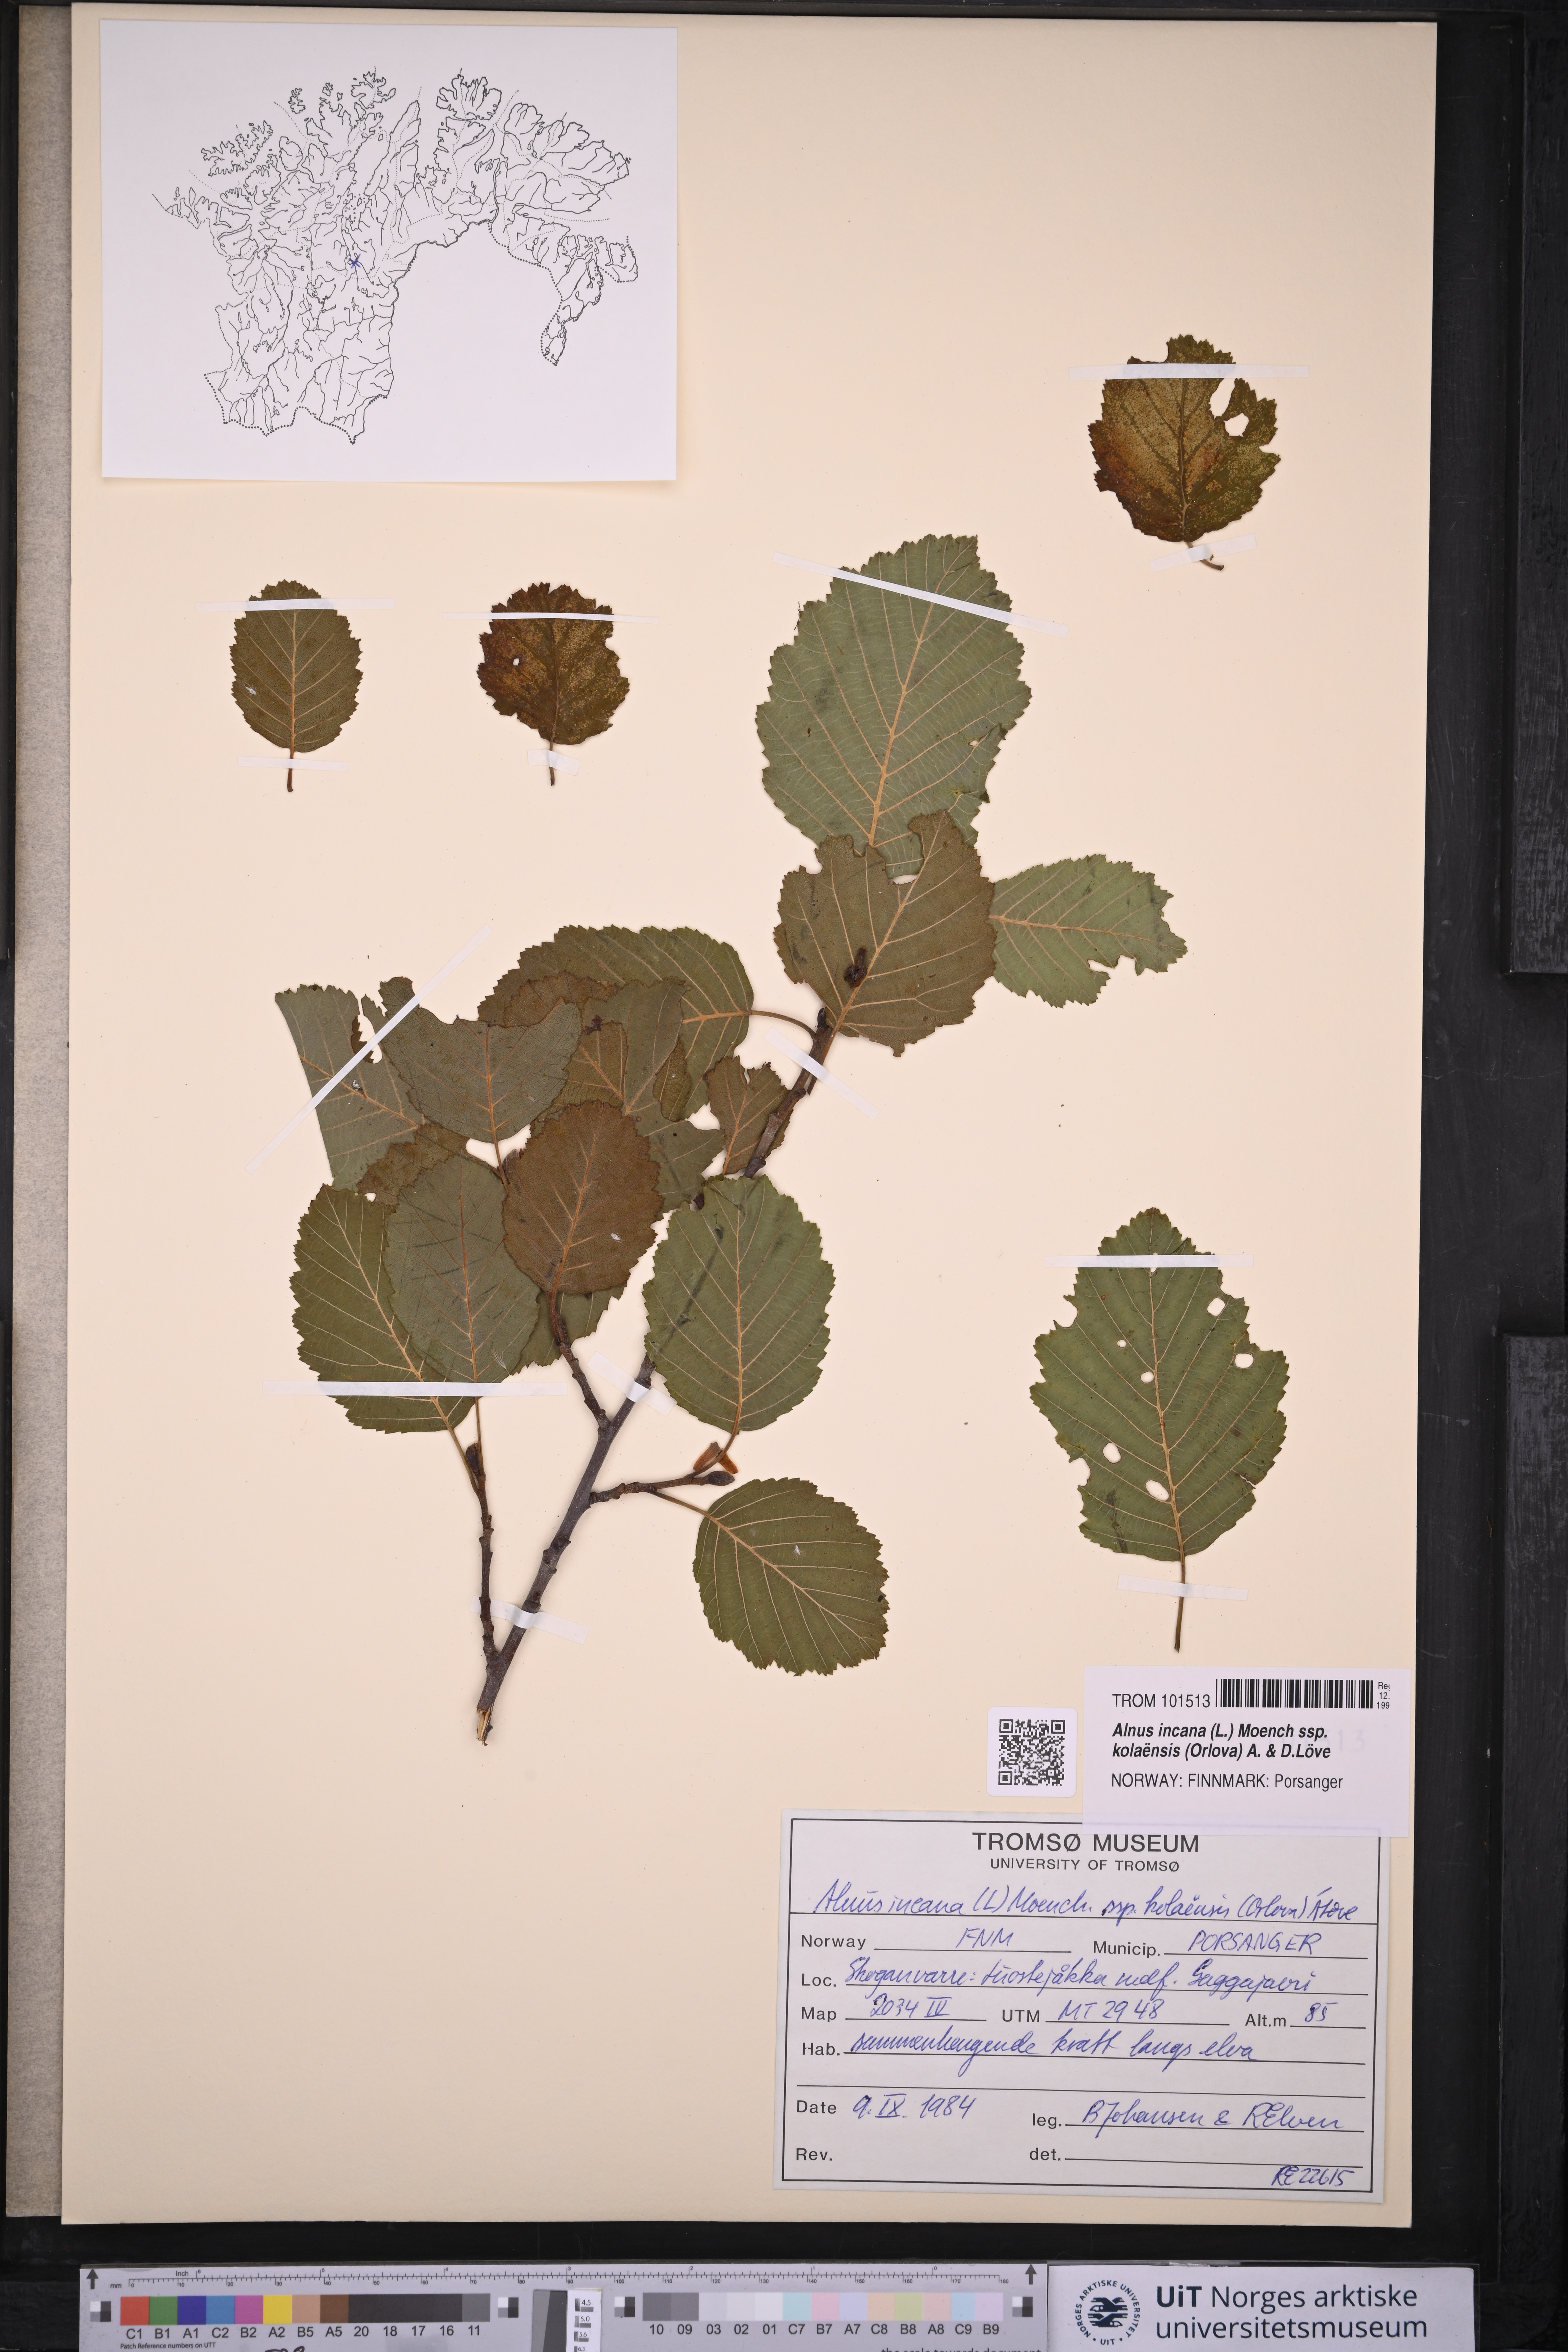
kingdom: Plantae
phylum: Tracheophyta
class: Magnoliopsida
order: Fagales
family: Betulaceae
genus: Alnus
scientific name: Alnus incana
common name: Grey alder
